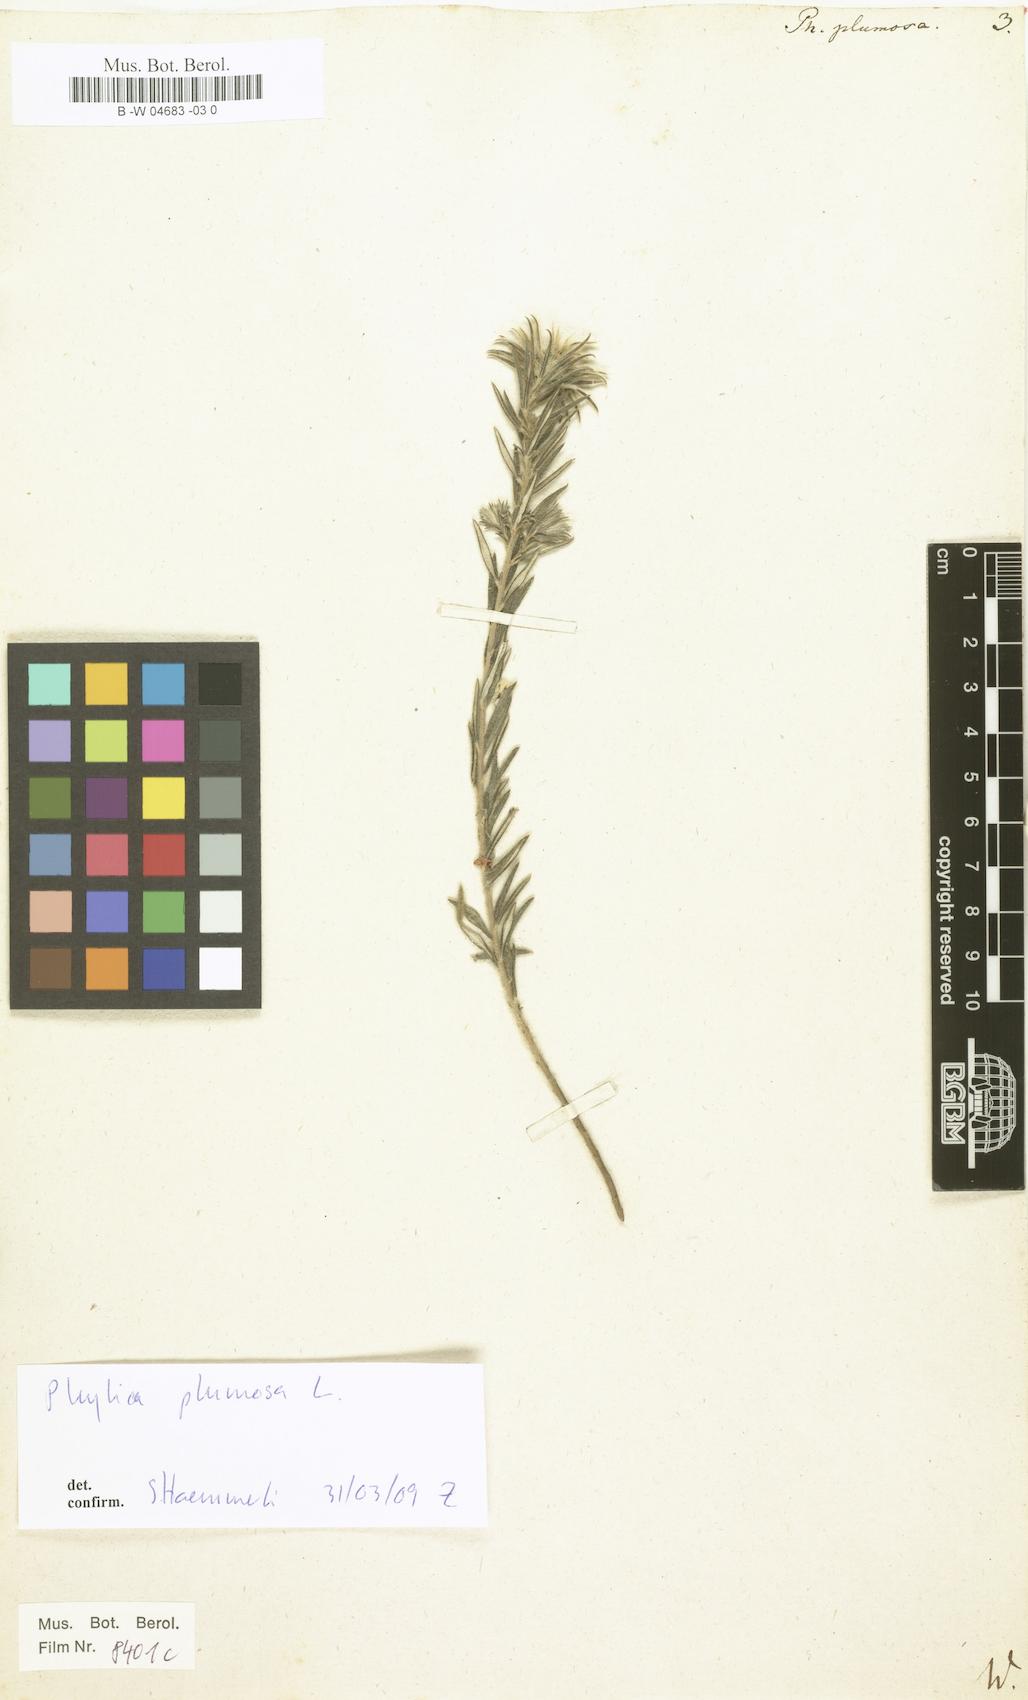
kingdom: Plantae
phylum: Tracheophyta
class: Magnoliopsida
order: Rosales
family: Rhamnaceae
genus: Phylica
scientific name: Phylica plumosa
